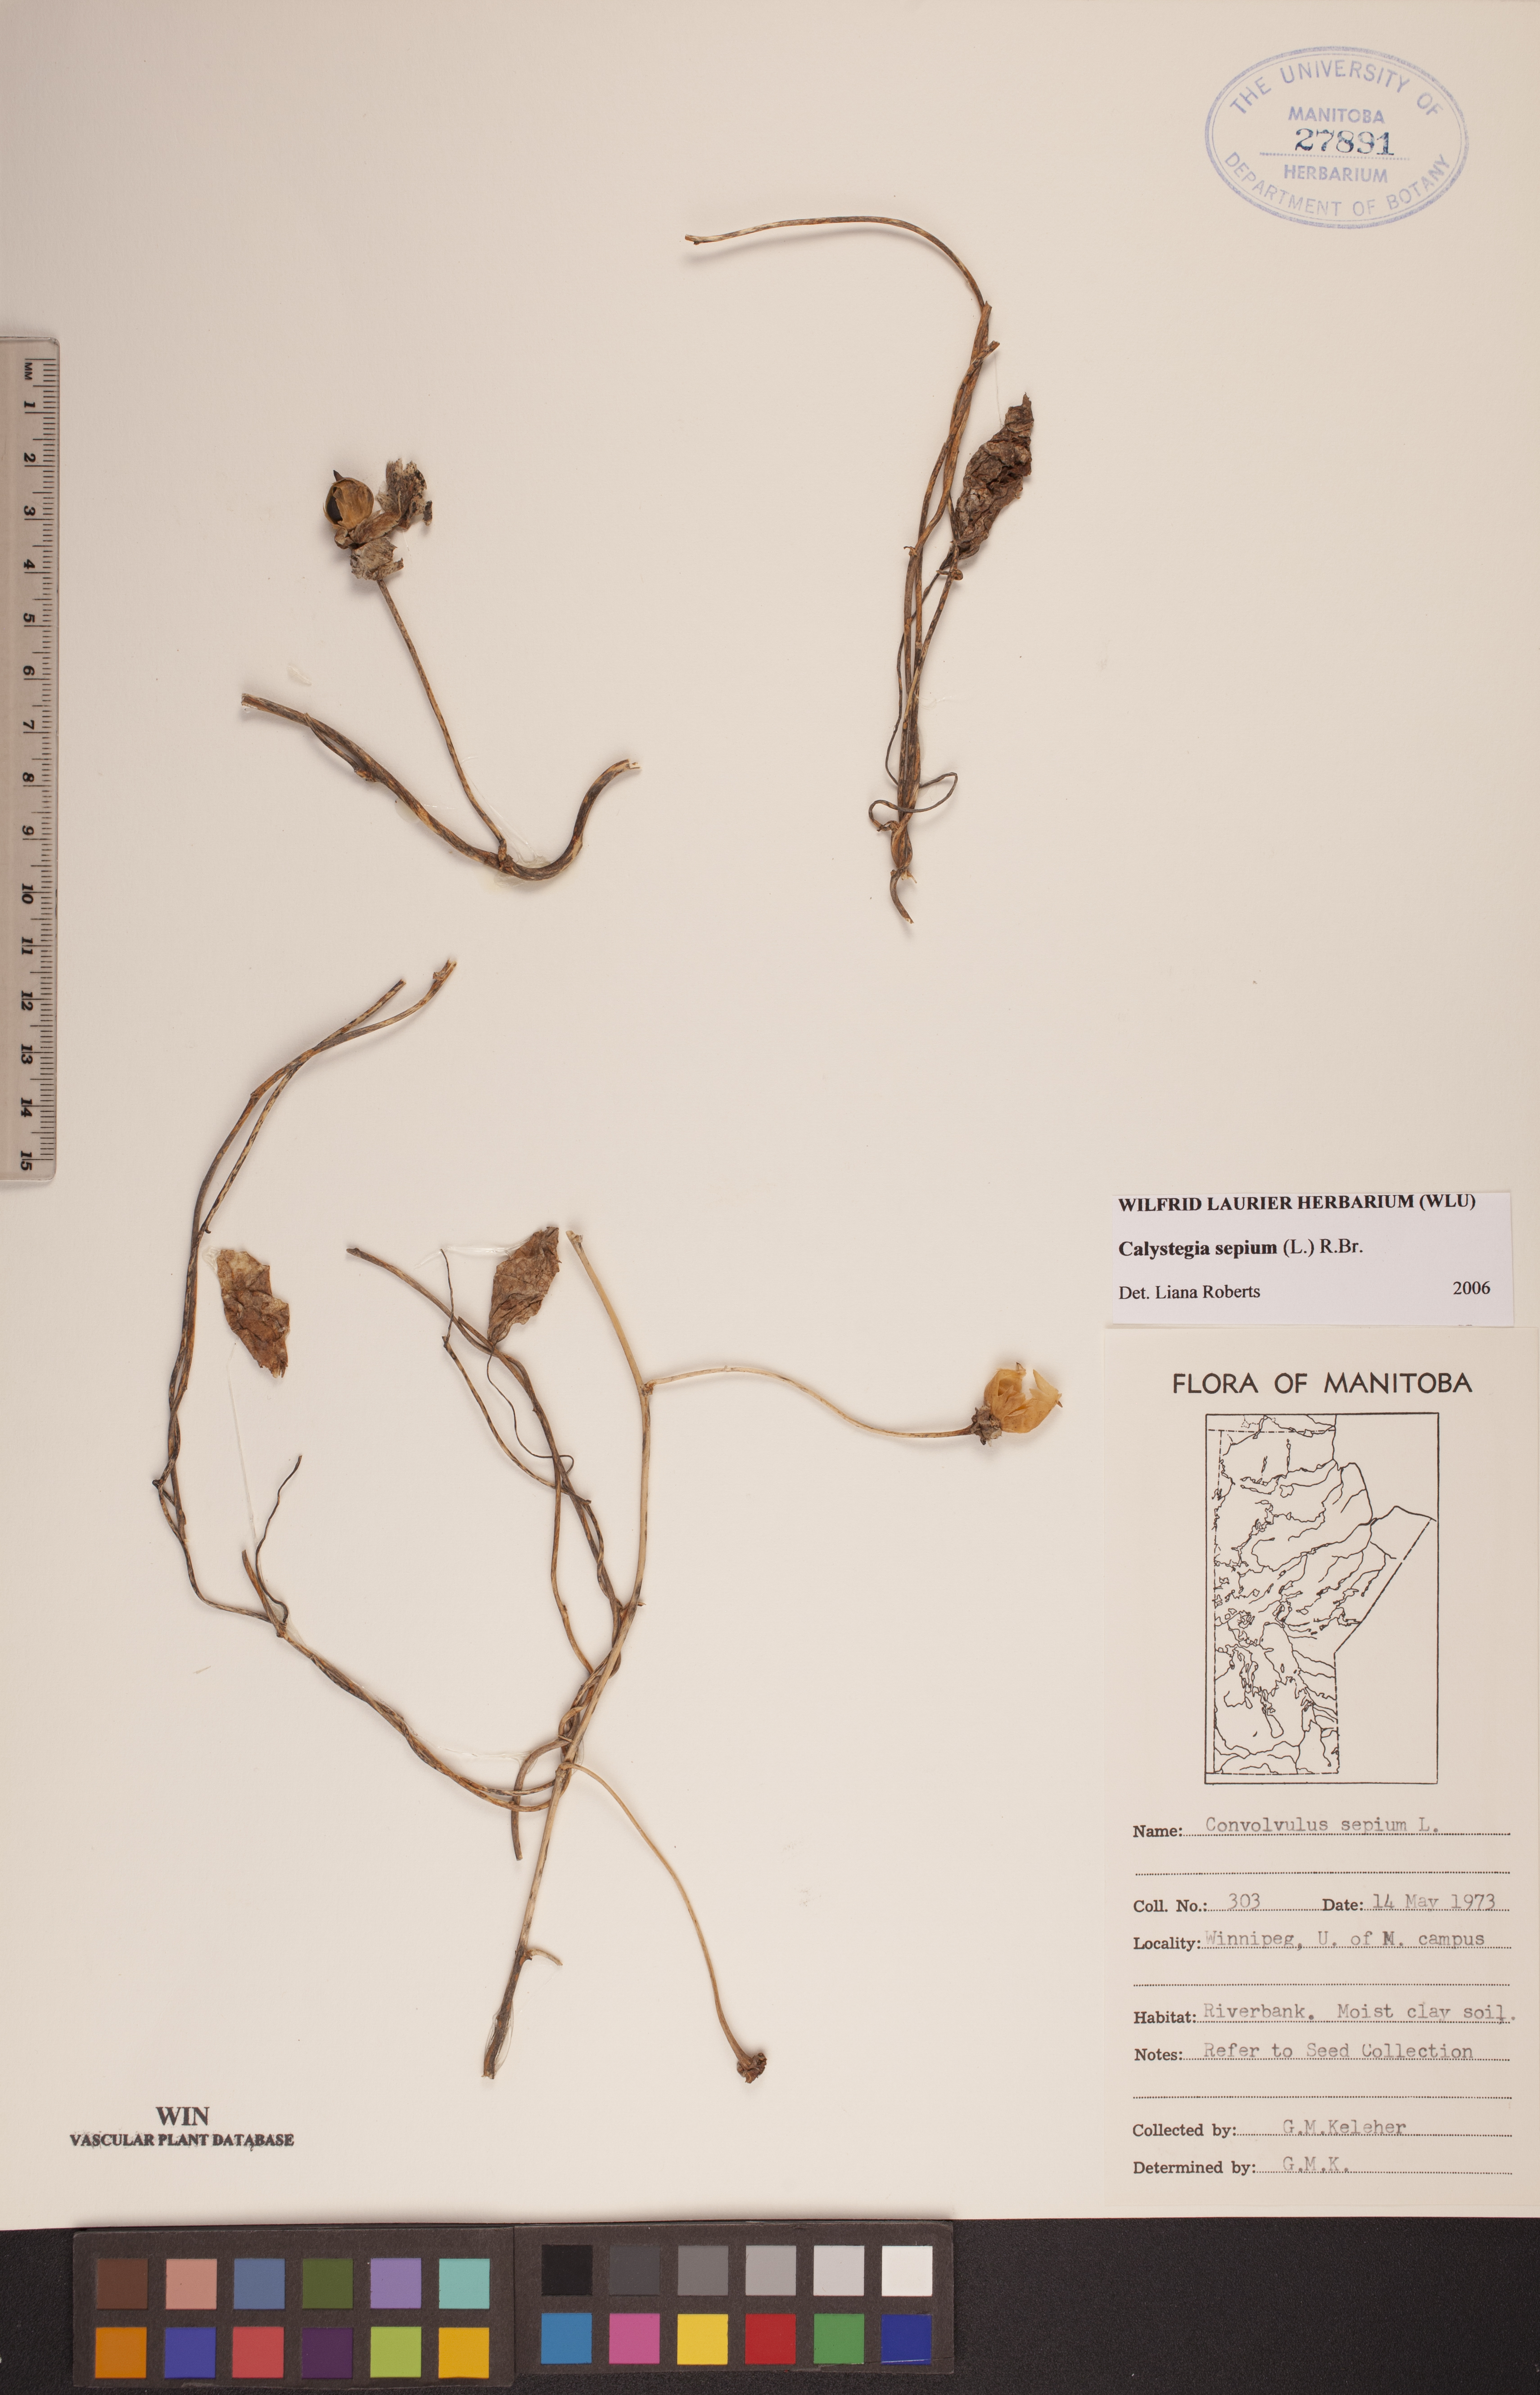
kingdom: Plantae
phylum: Tracheophyta
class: Magnoliopsida
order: Solanales
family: Convolvulaceae
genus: Calystegia
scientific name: Calystegia sepium
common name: Hedge bindweed
